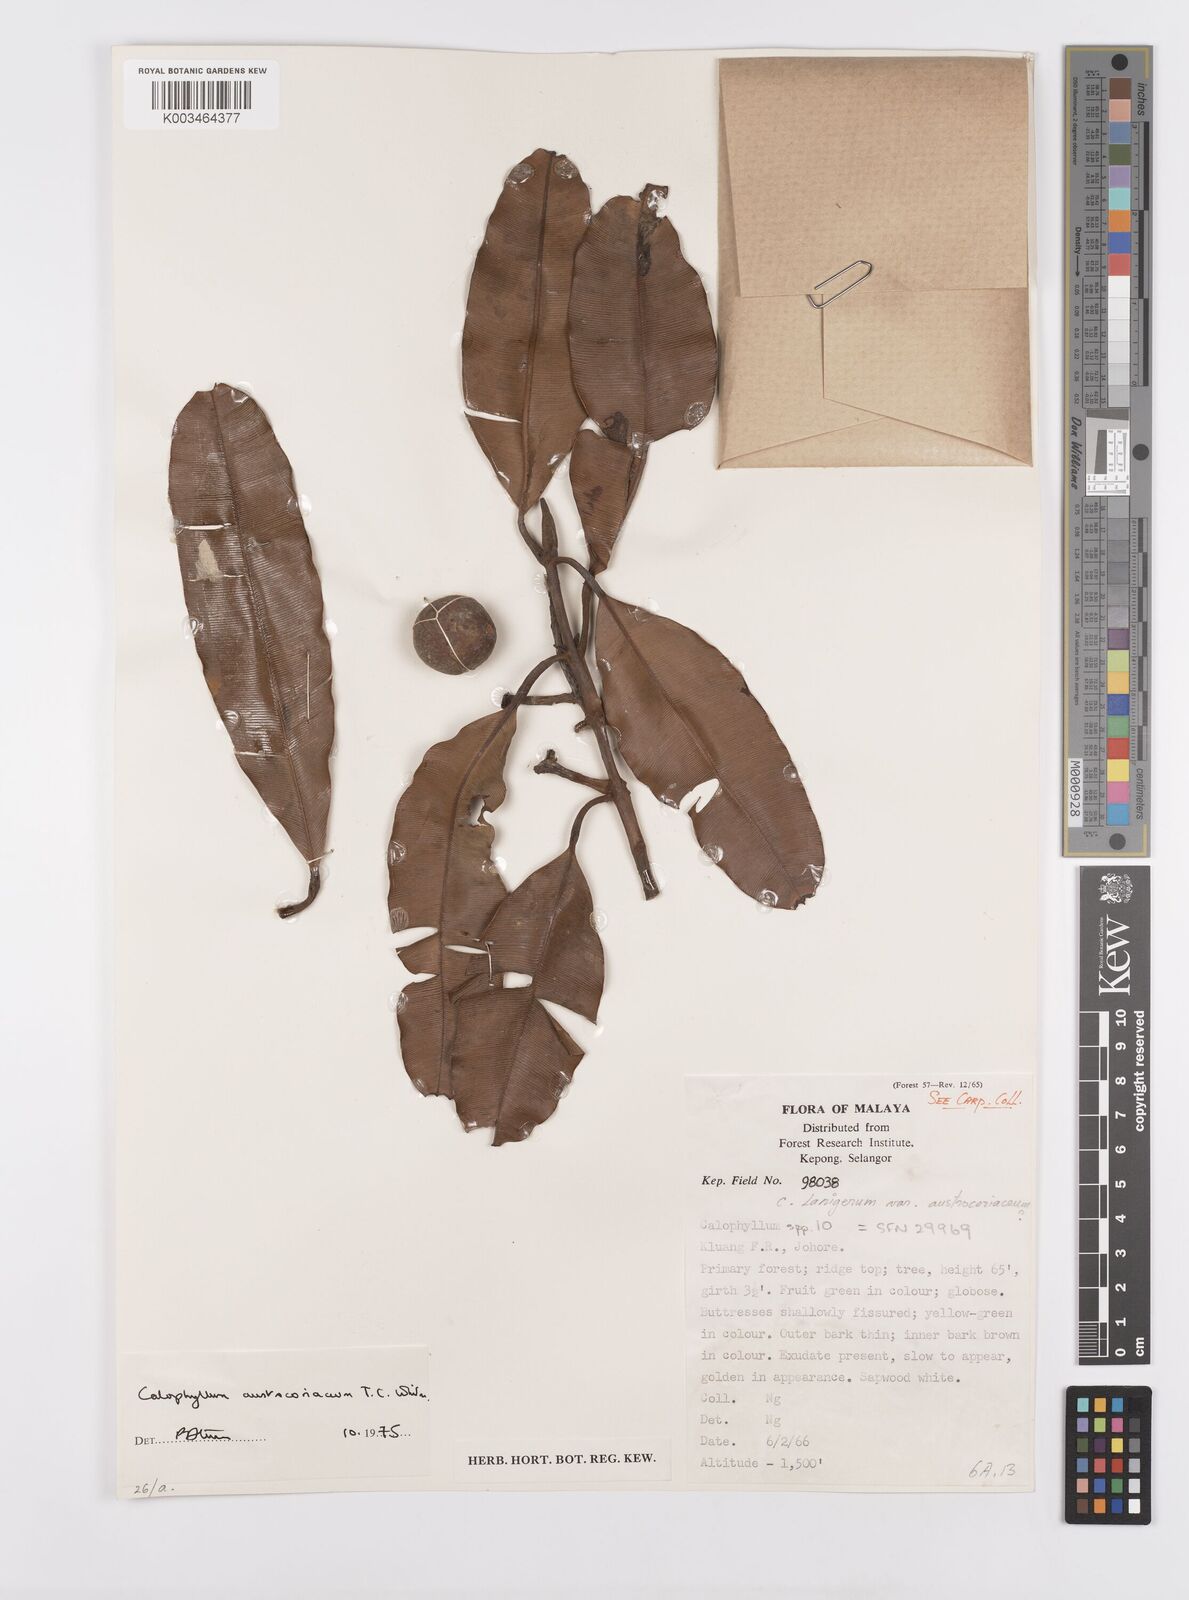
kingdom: Plantae
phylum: Tracheophyta
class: Magnoliopsida
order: Malpighiales
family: Calophyllaceae
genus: Calophyllum
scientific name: Calophyllum lanigerum
